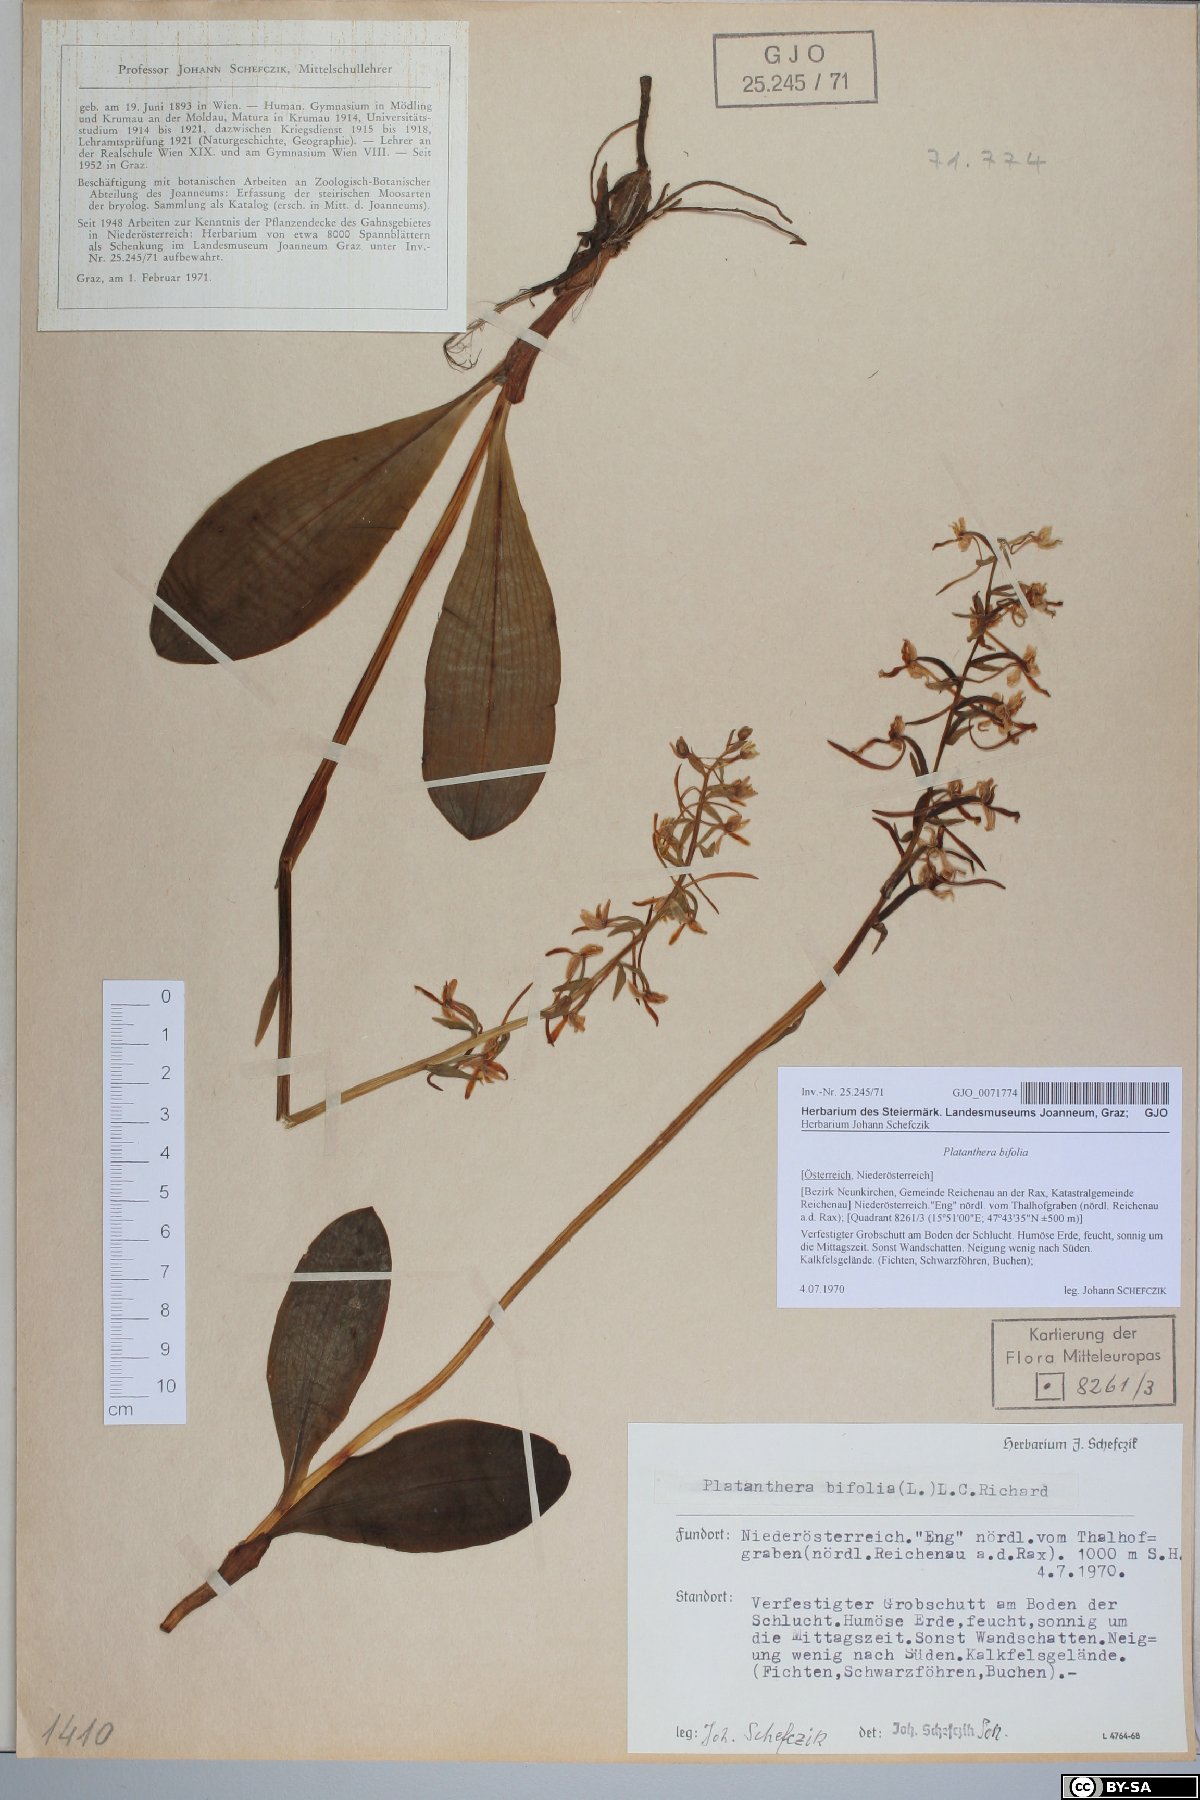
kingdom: Plantae
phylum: Tracheophyta
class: Liliopsida
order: Asparagales
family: Orchidaceae
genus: Platanthera
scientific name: Platanthera bifolia
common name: Lesser butterfly-orchid
